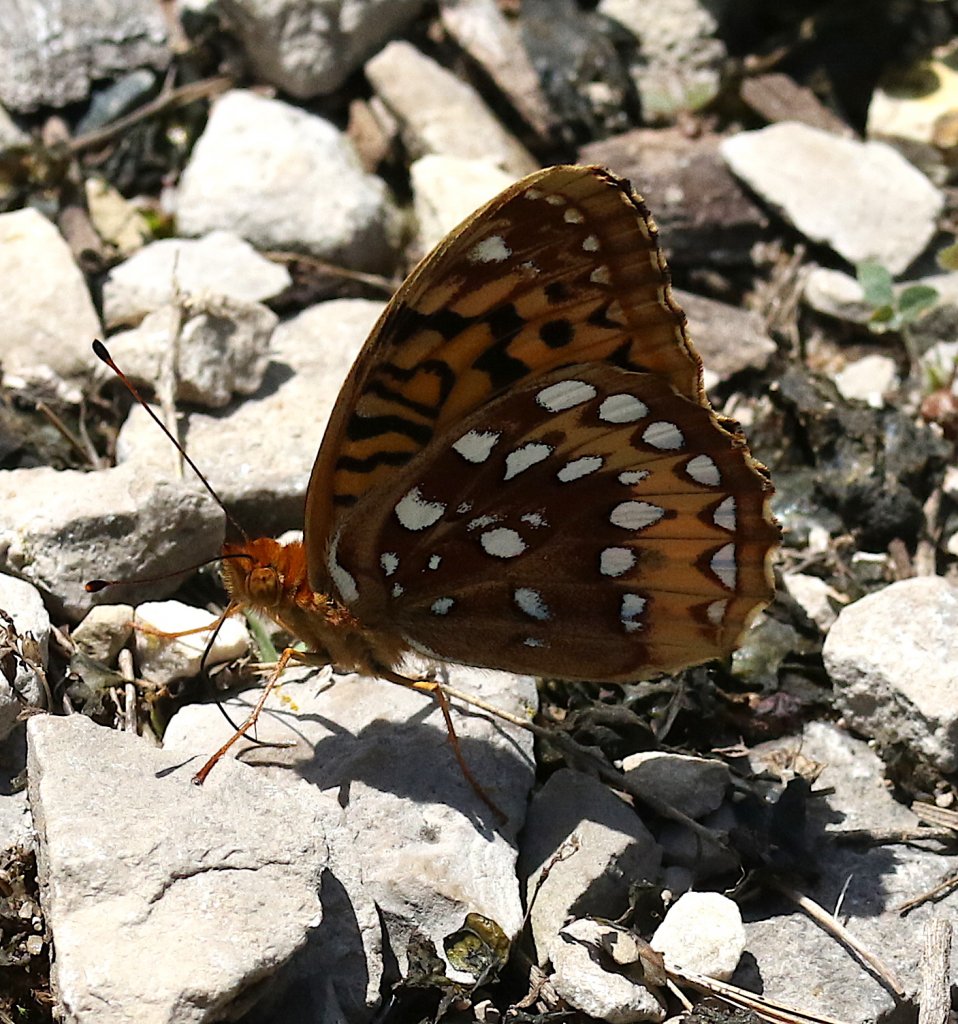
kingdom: Animalia
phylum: Arthropoda
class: Insecta
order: Lepidoptera
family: Nymphalidae
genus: Speyeria
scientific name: Speyeria cybele
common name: Great Spangled Fritillary
